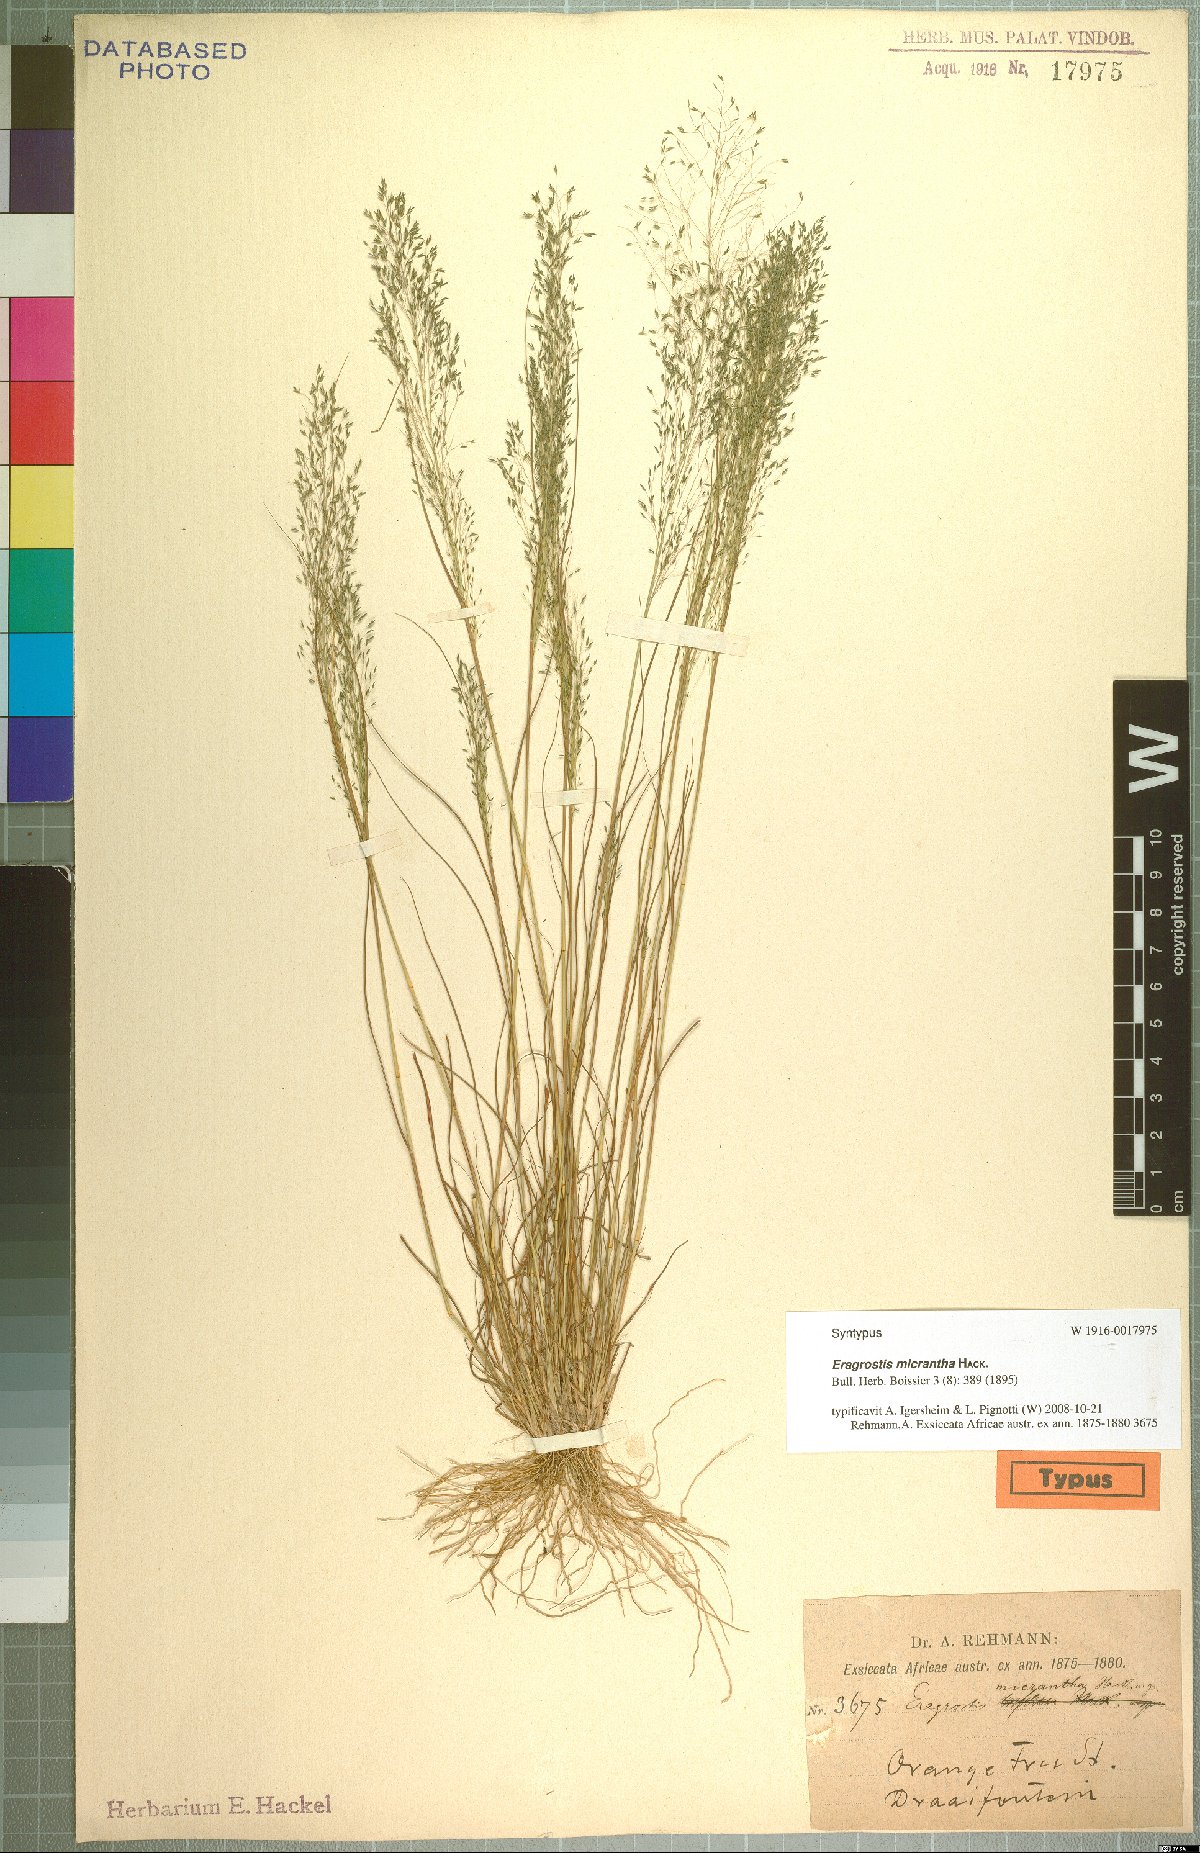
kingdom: Plantae
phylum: Tracheophyta
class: Liliopsida
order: Poales
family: Poaceae
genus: Eragrostis
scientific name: Eragrostis micrantha
